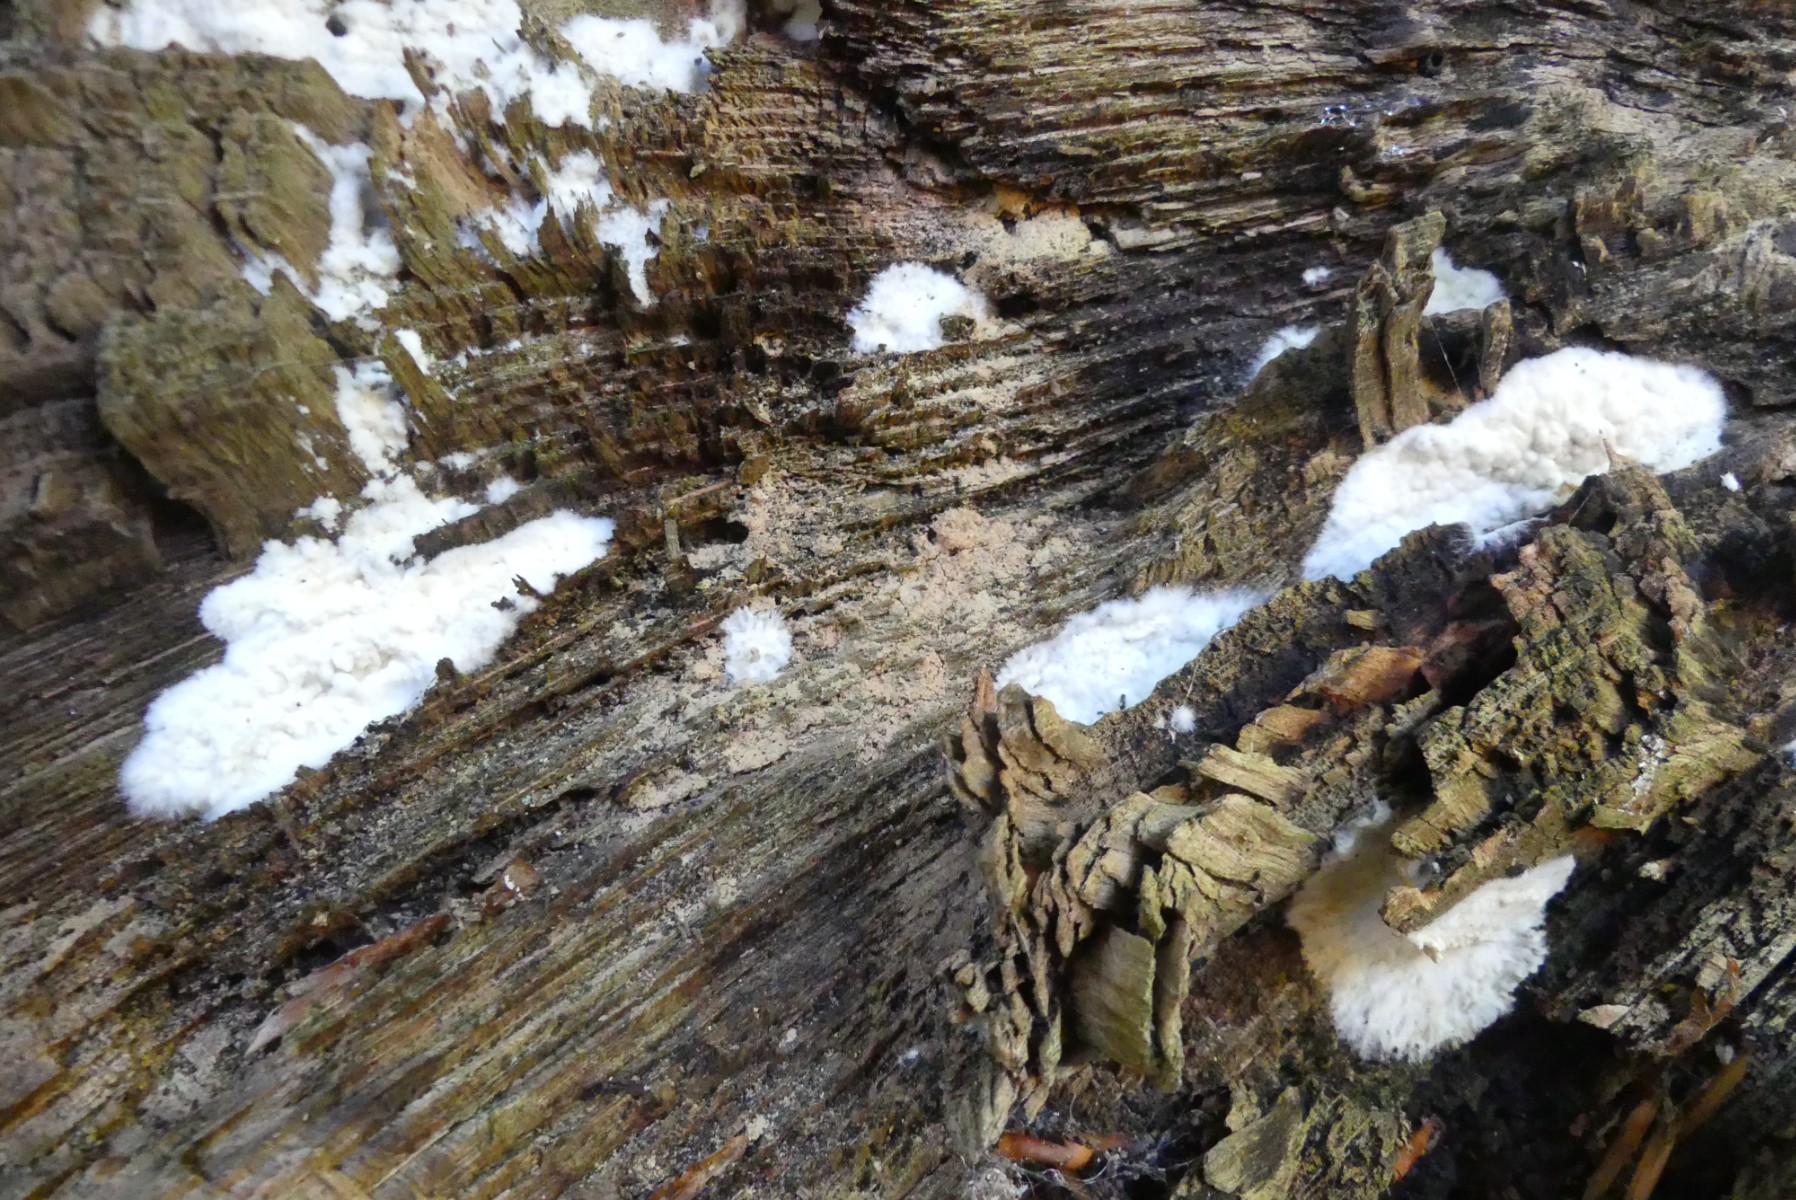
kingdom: Fungi
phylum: Basidiomycota
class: Agaricomycetes
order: Corticiales
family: Corticiaceae
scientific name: Corticiaceae
